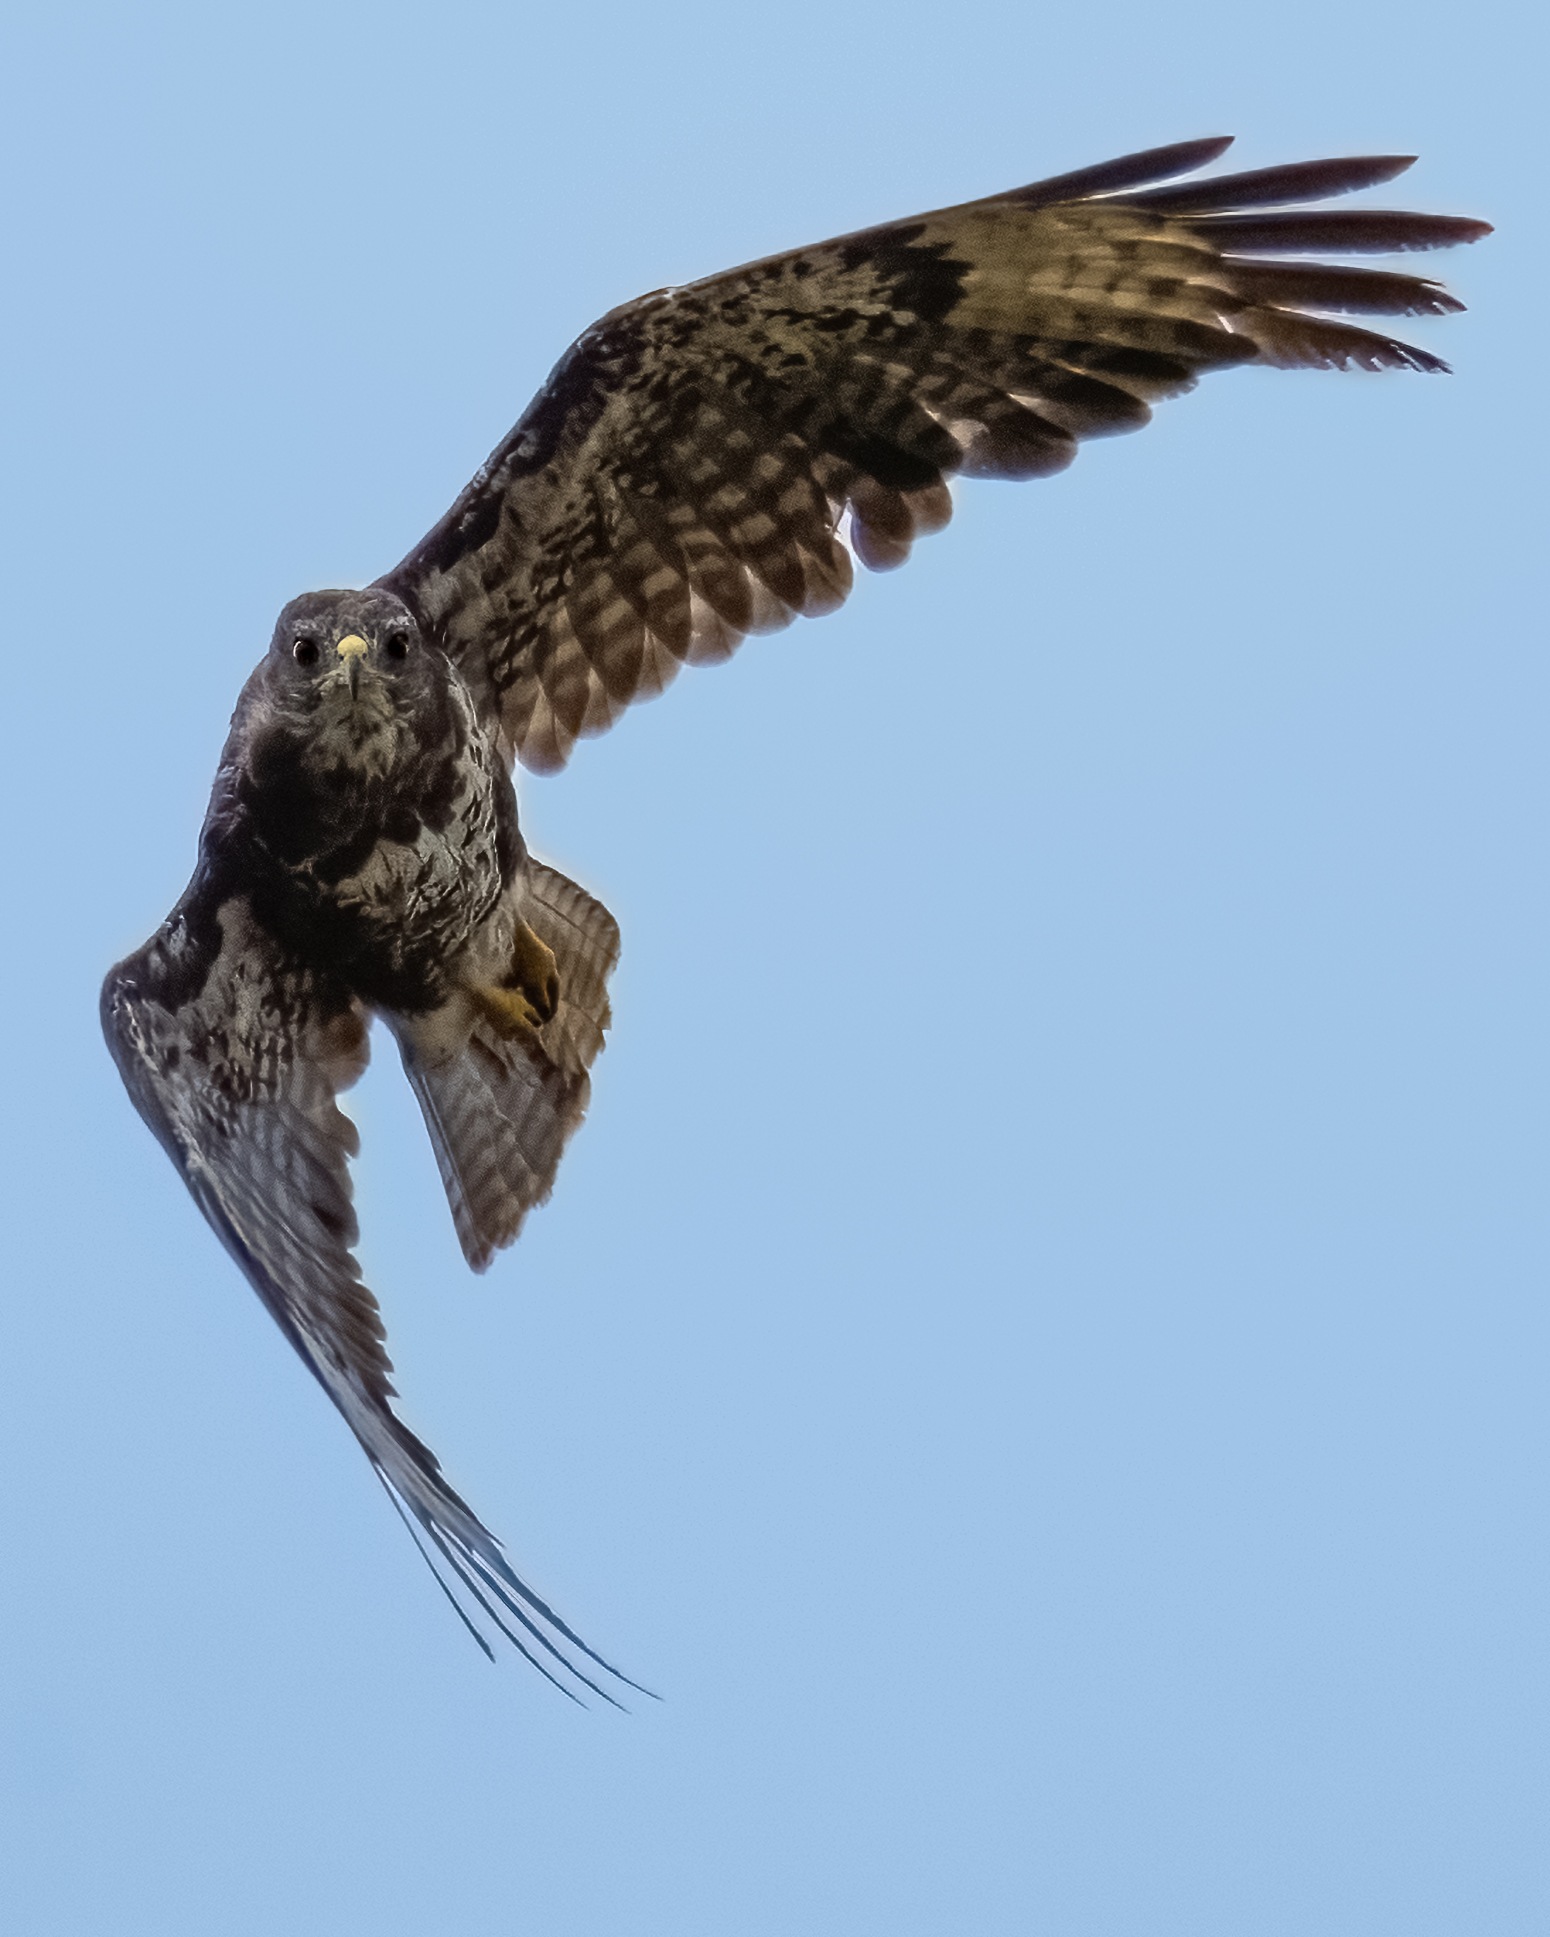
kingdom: Animalia
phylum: Chordata
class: Aves
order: Accipitriformes
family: Accipitridae
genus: Buteo
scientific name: Buteo buteo
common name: Musvåge
